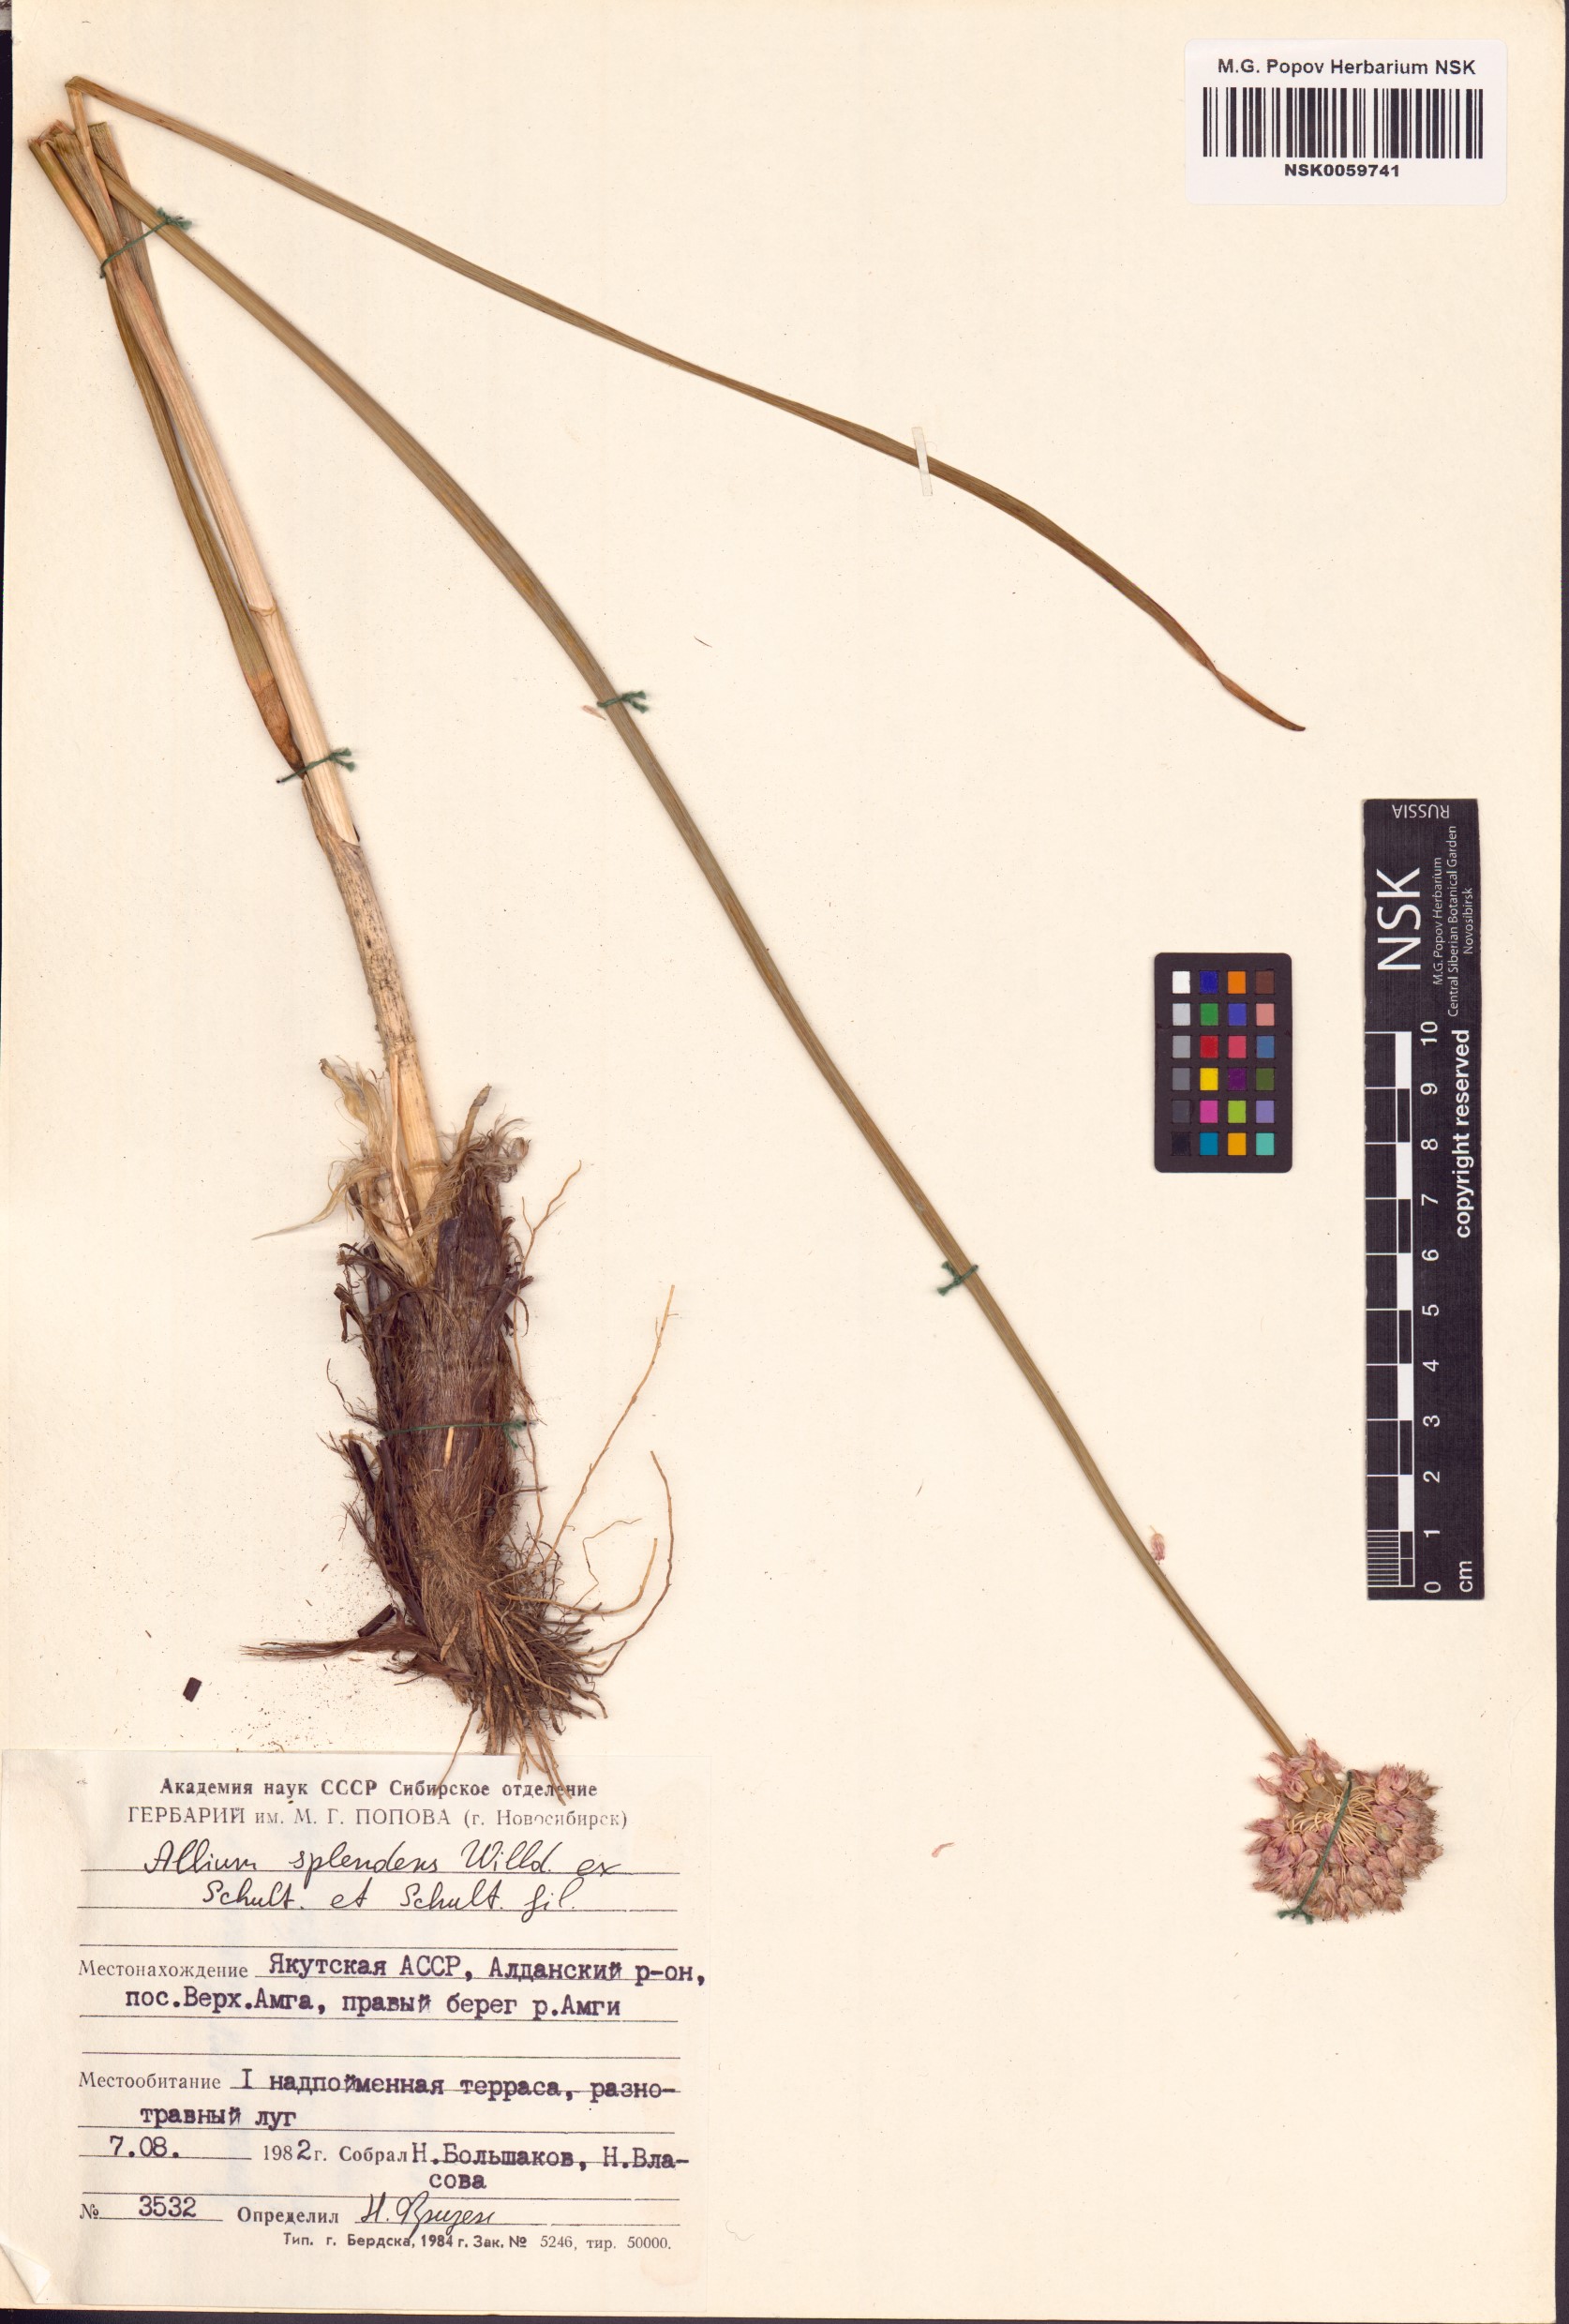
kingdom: Plantae
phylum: Tracheophyta
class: Liliopsida
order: Asparagales
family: Amaryllidaceae
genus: Allium
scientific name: Allium splendens
